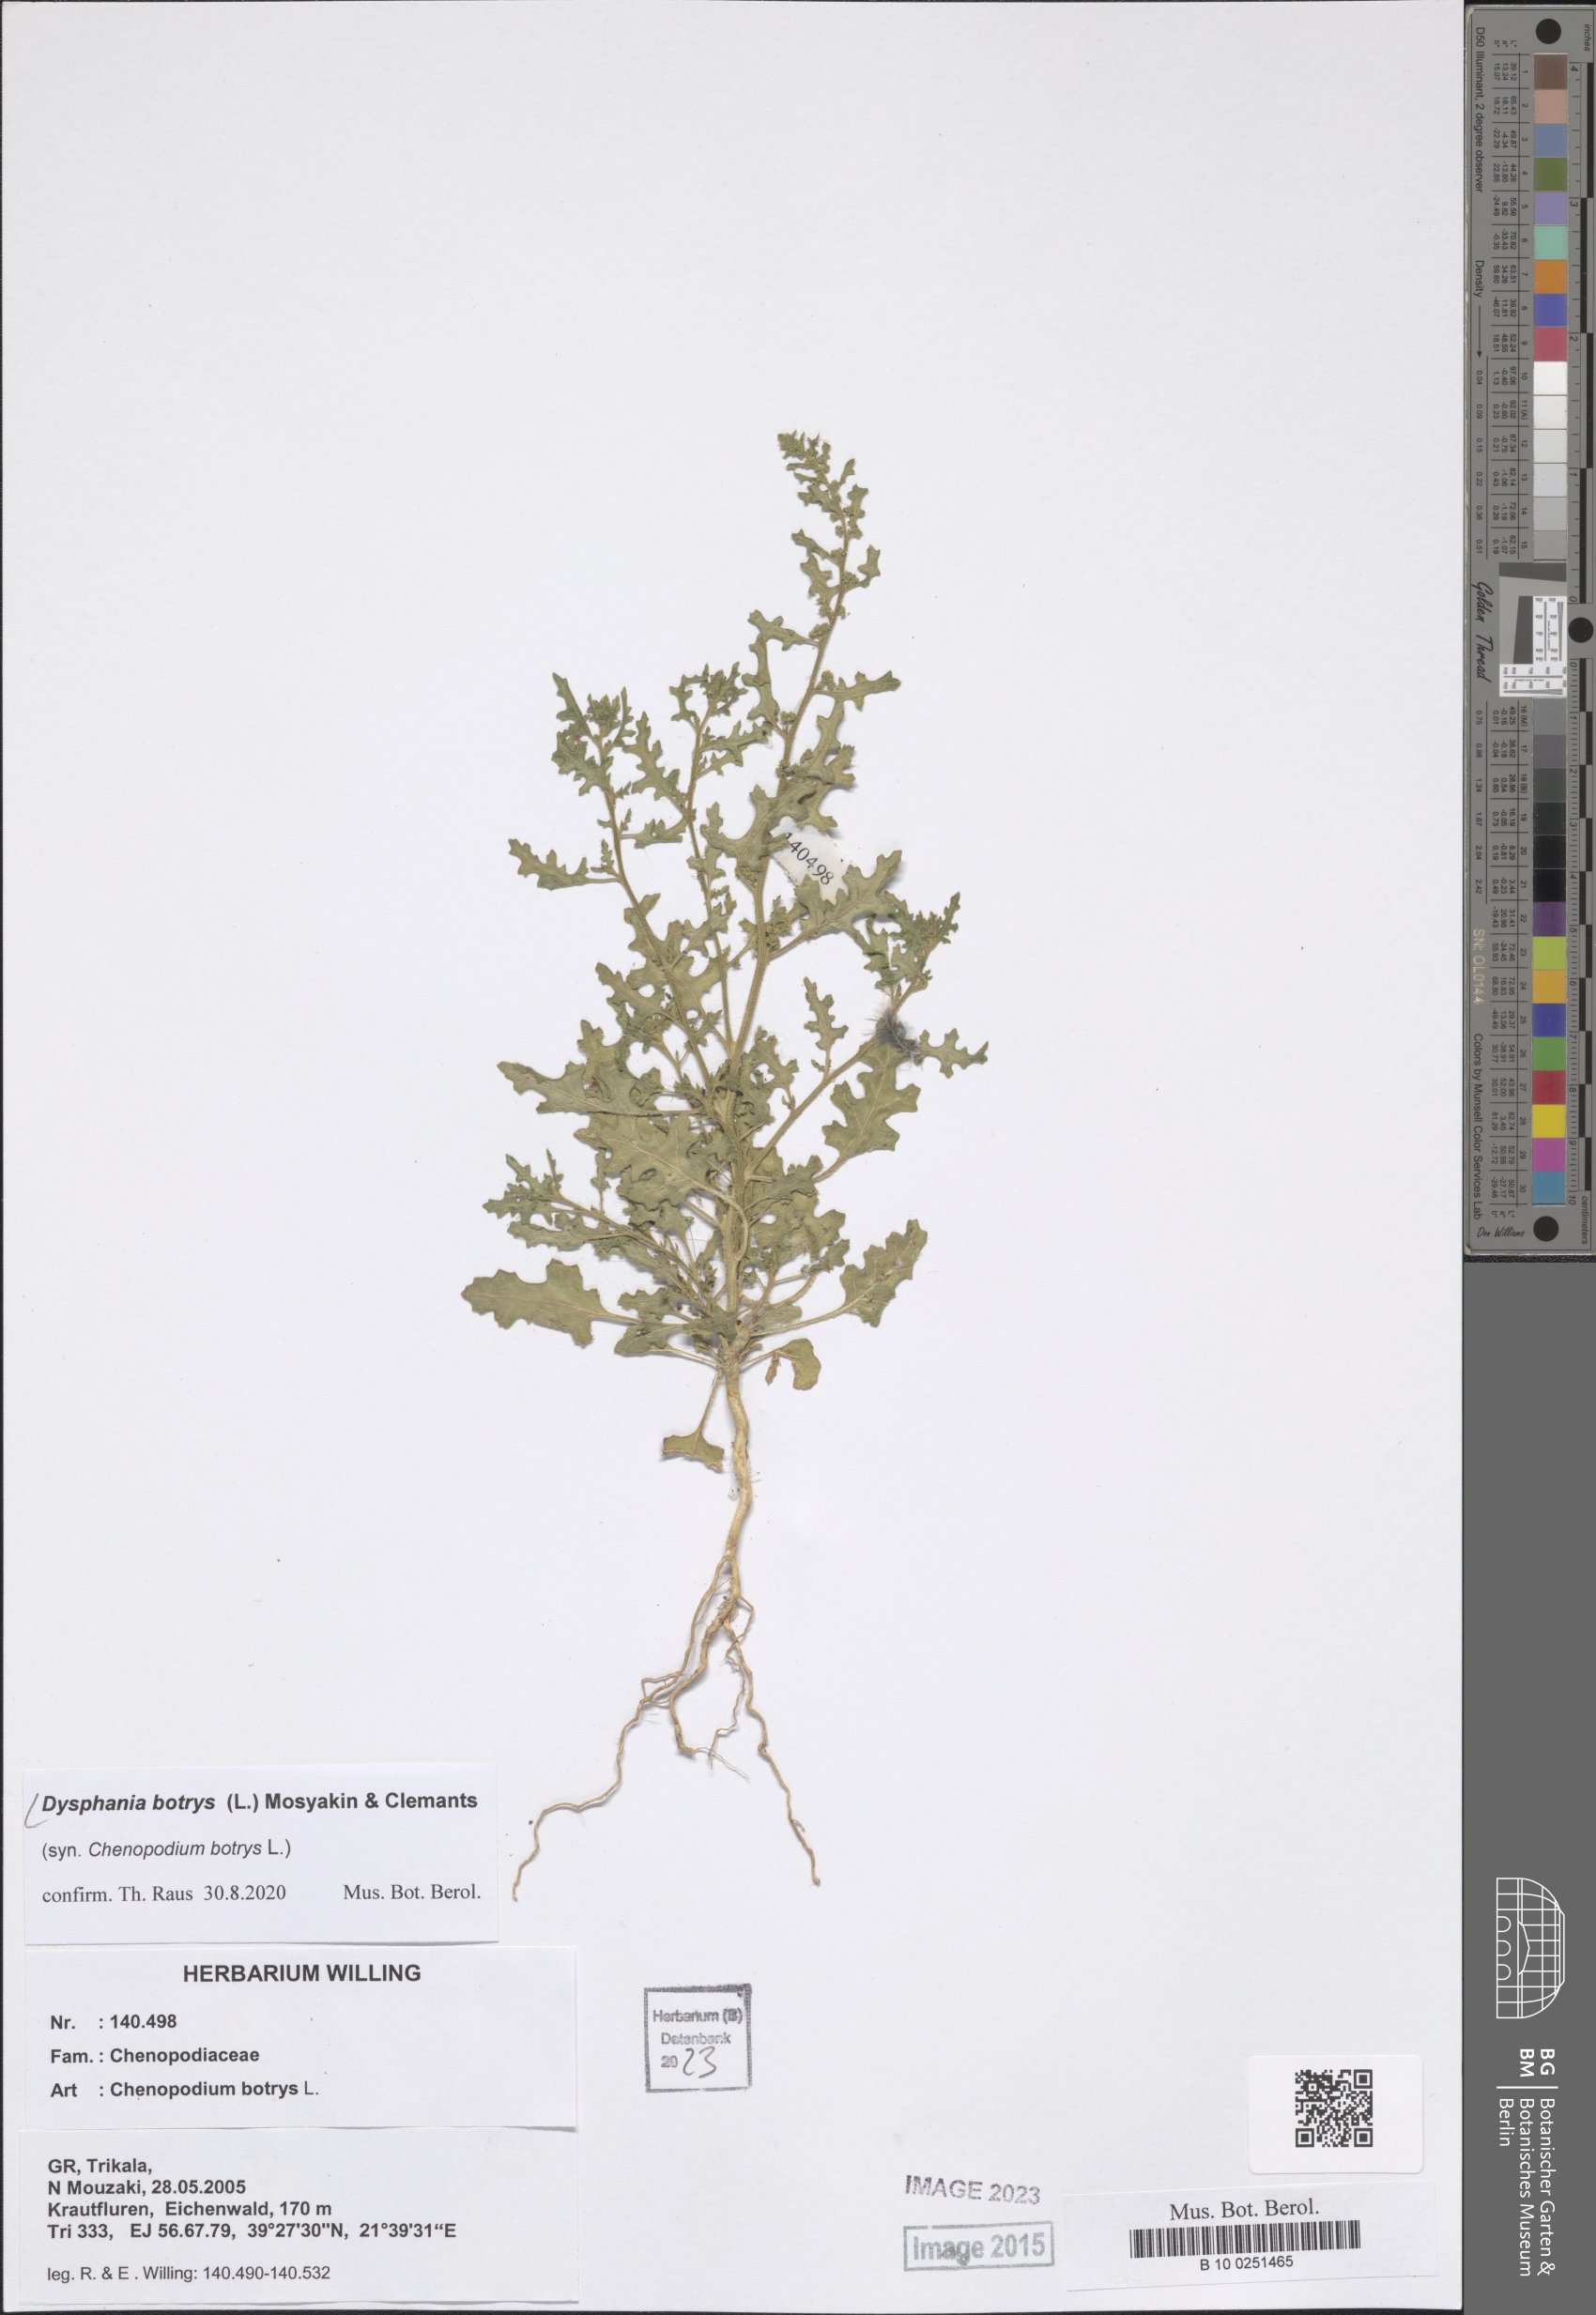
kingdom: Plantae
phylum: Tracheophyta
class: Magnoliopsida
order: Caryophyllales
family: Amaranthaceae
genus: Dysphania
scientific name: Dysphania botrys
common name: Feather-geranium
